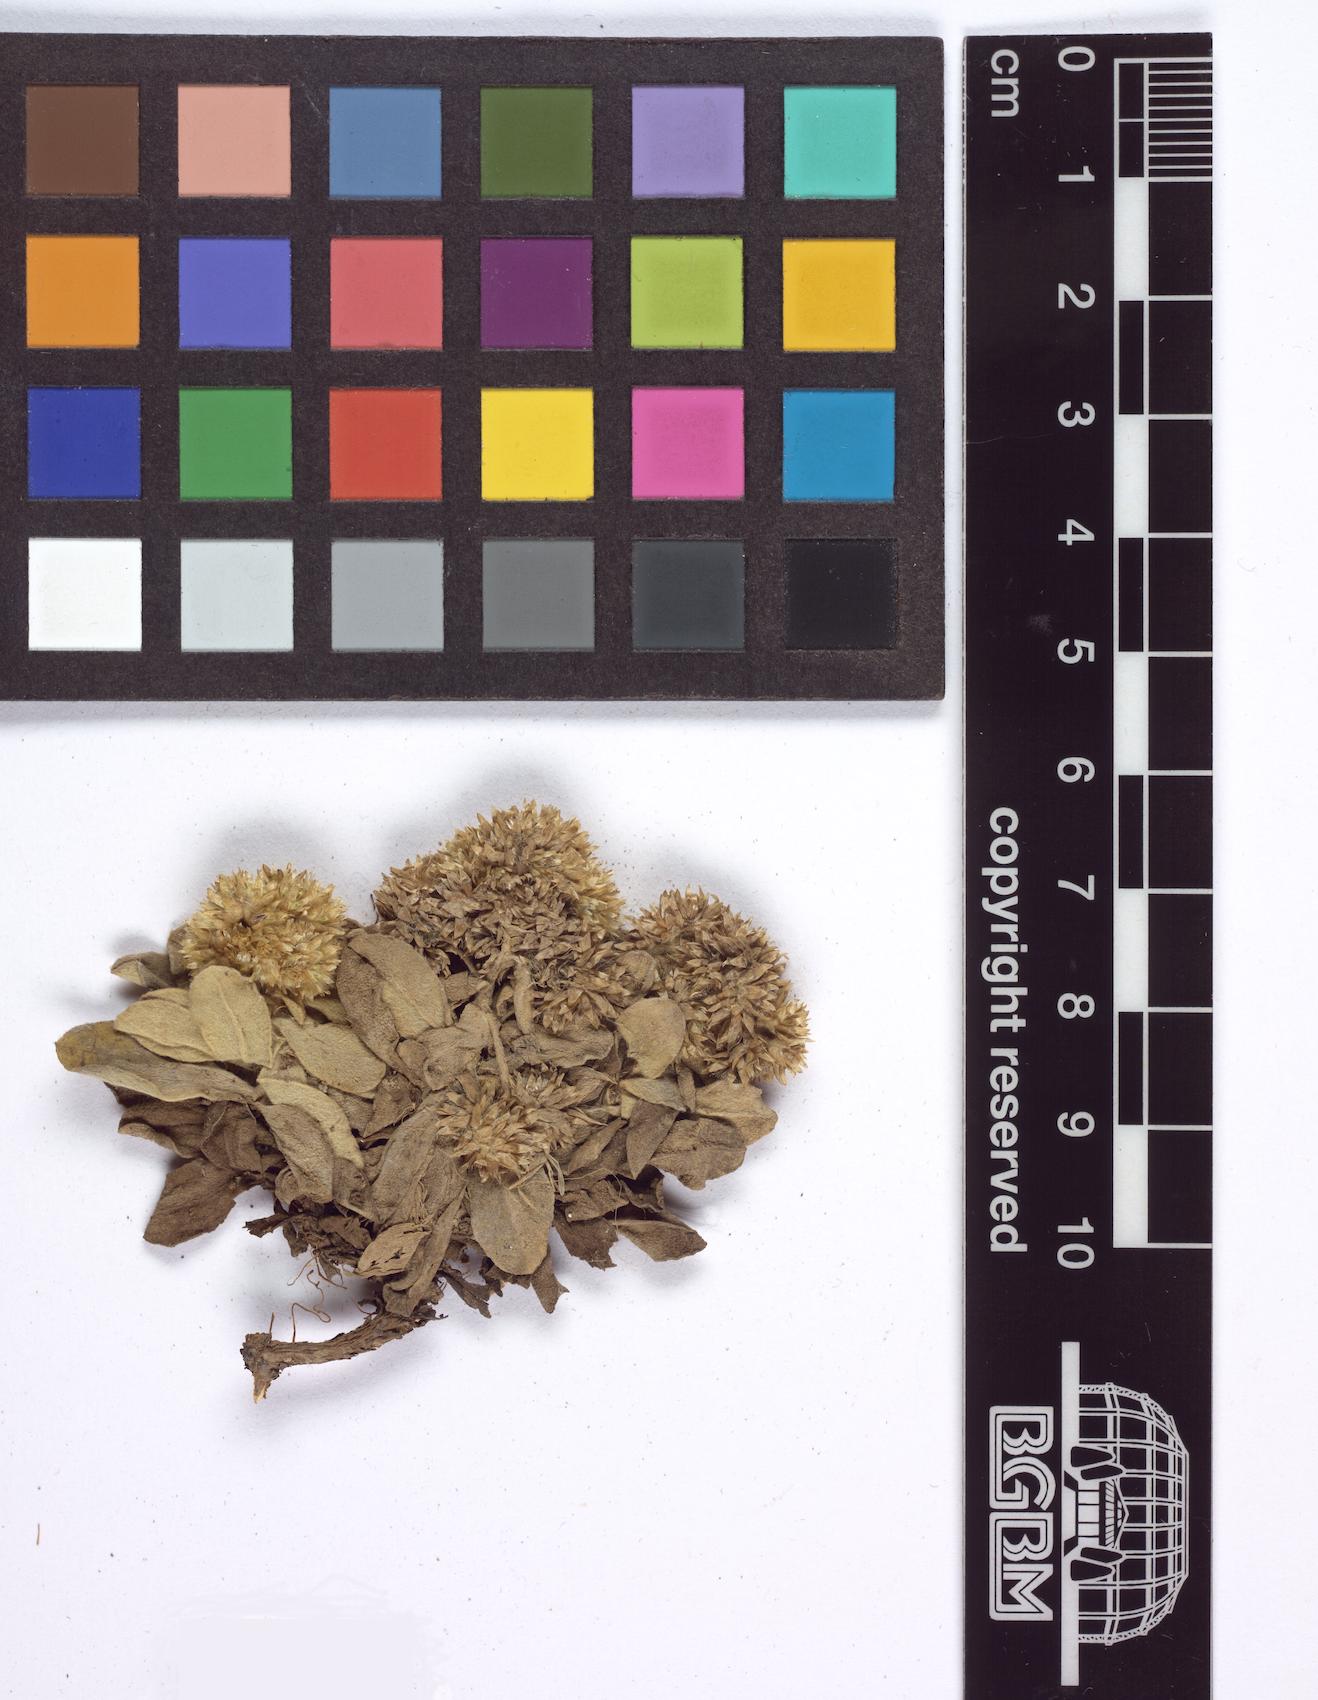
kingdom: Plantae
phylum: Tracheophyta
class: Magnoliopsida
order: Asterales
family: Asteraceae
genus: Helichrysum
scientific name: Helichrysum nicolai
